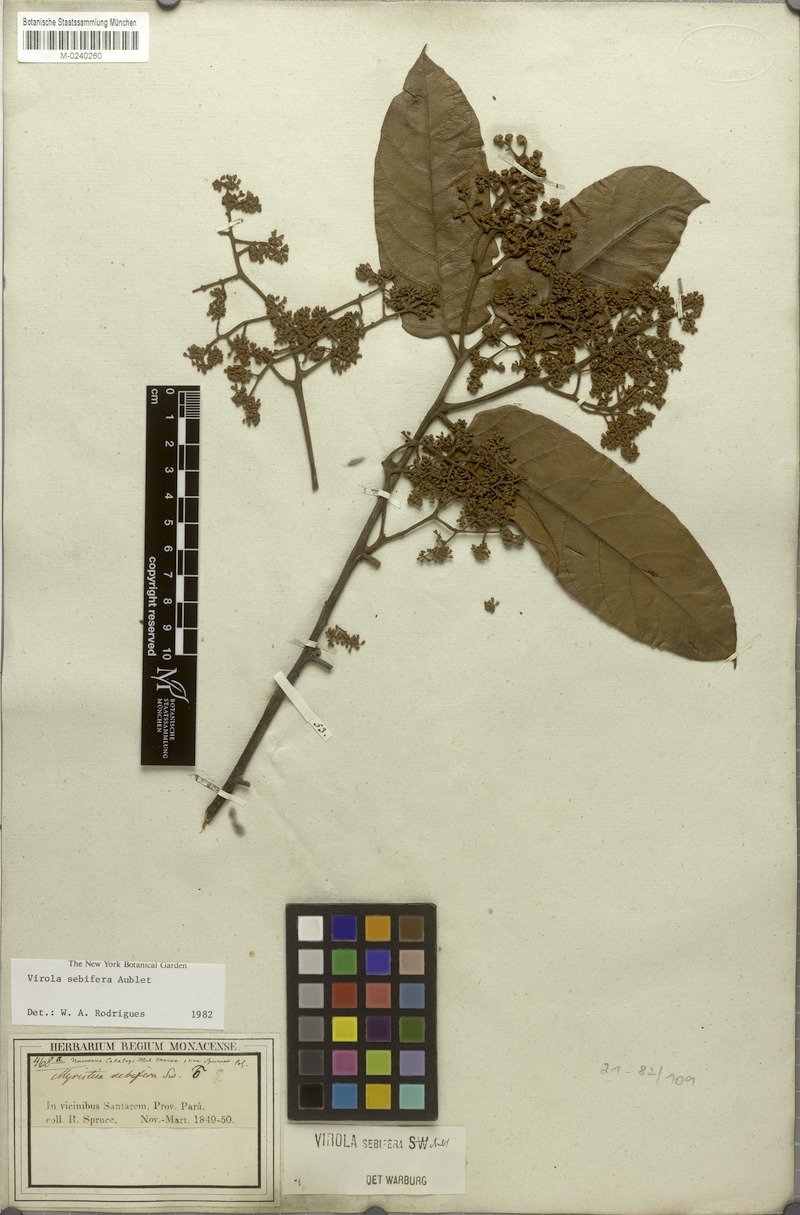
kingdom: Plantae
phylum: Tracheophyta
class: Magnoliopsida
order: Magnoliales
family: Myristicaceae
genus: Virola
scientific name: Virola sebifera
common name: Red ucuuba
